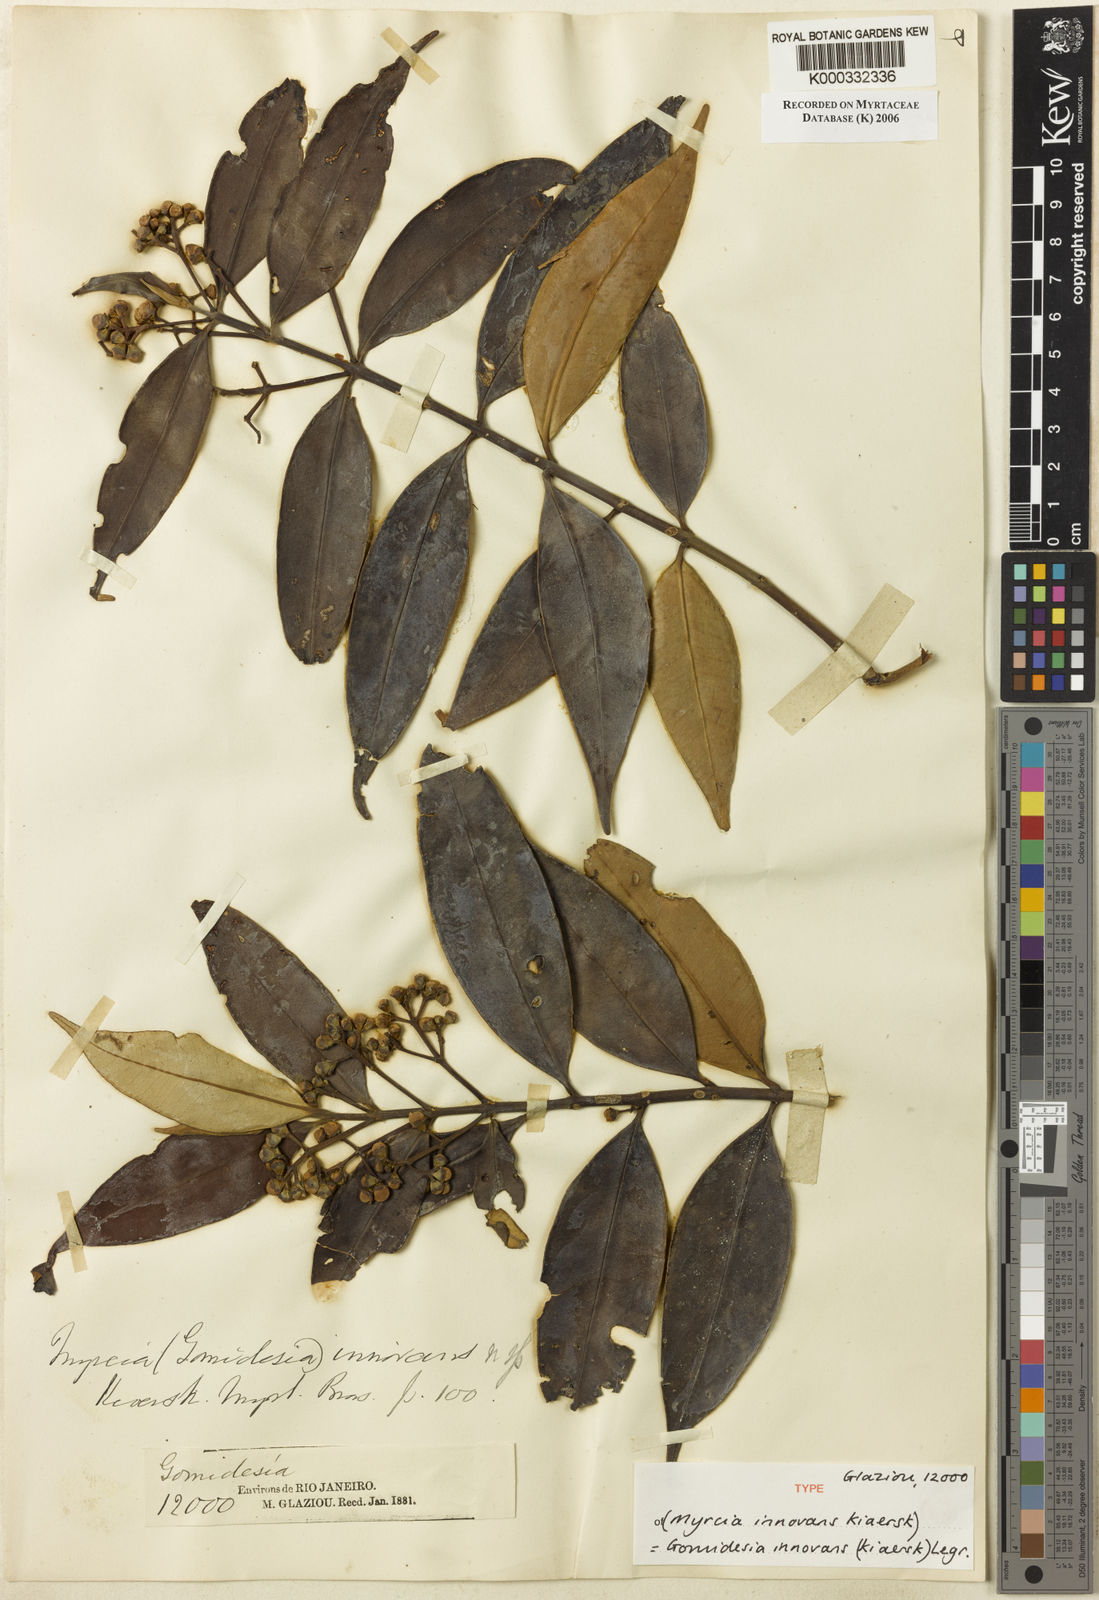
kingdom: Plantae
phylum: Tracheophyta
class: Magnoliopsida
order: Myrtales
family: Myrtaceae
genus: Myrcia
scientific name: Myrcia innovans
